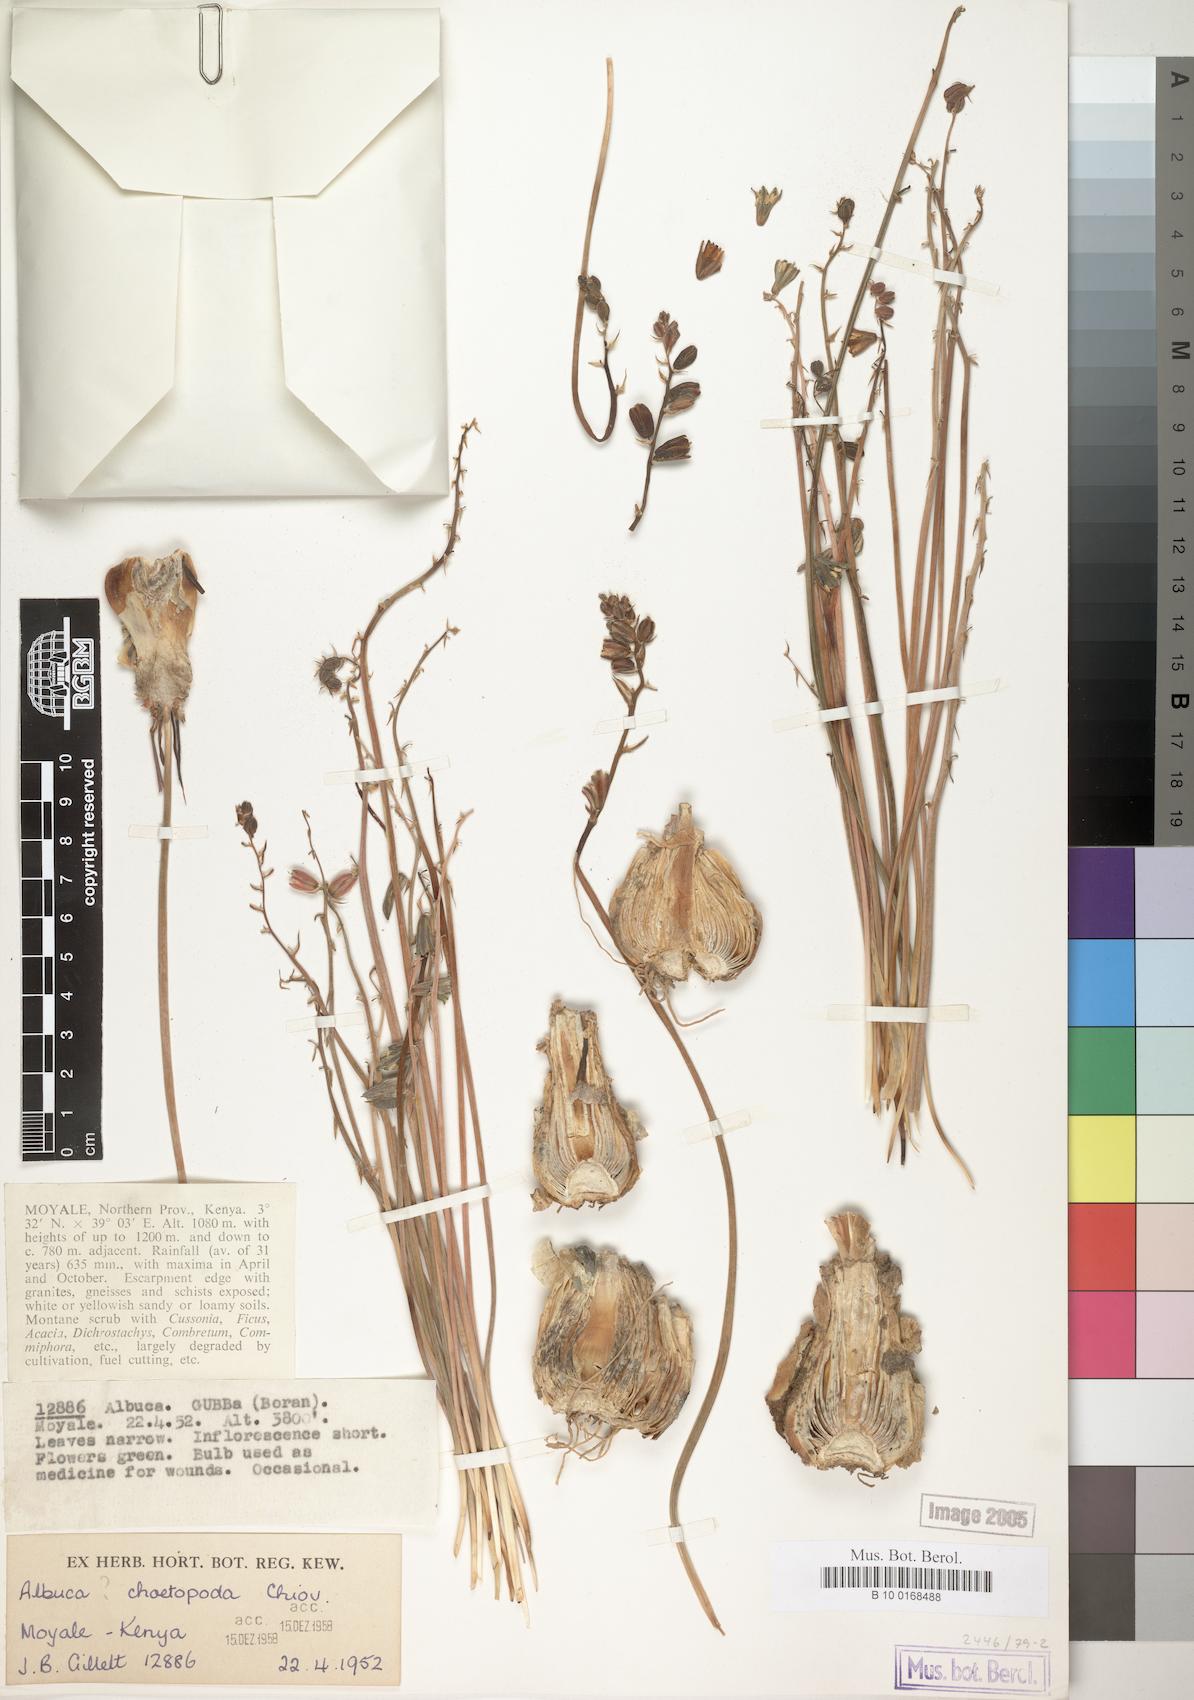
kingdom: Plantae
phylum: Tracheophyta
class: Liliopsida
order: Asparagales
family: Asparagaceae
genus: Albuca
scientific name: Albuca abyssinica
